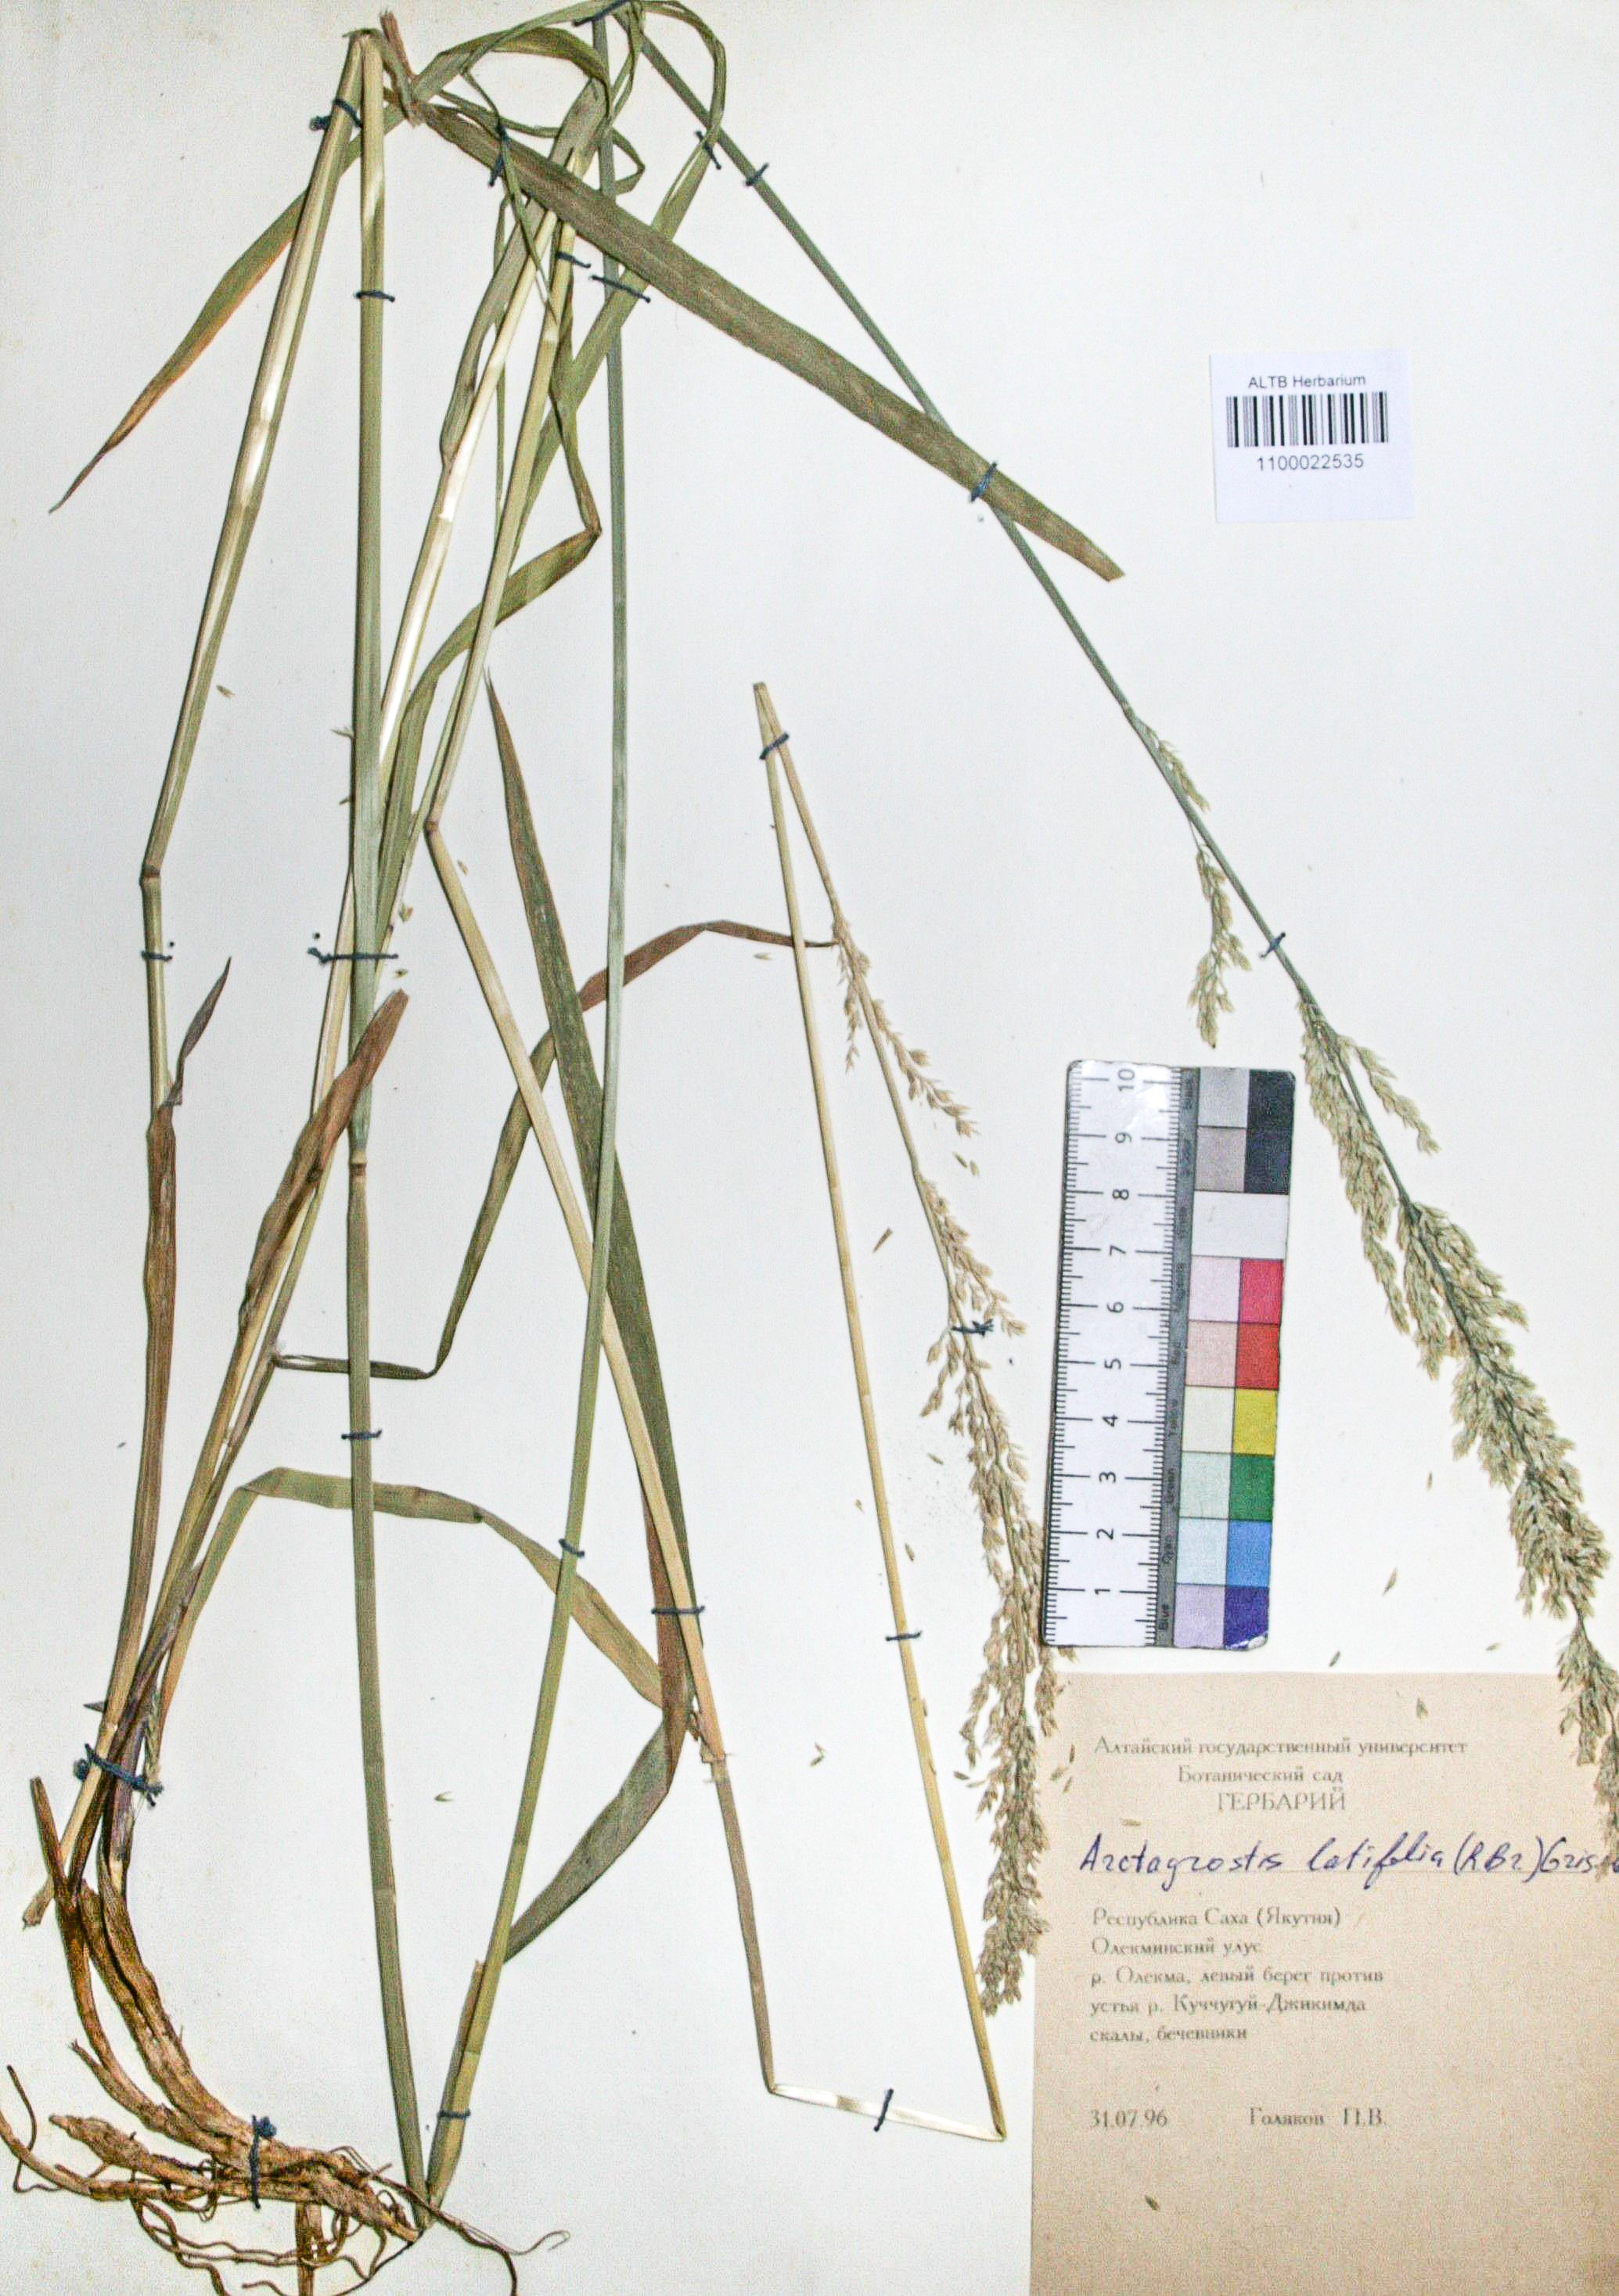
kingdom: Plantae
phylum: Tracheophyta
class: Liliopsida
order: Poales
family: Poaceae
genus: Arctagrostis
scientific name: Arctagrostis latifolia
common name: Arctic grass
